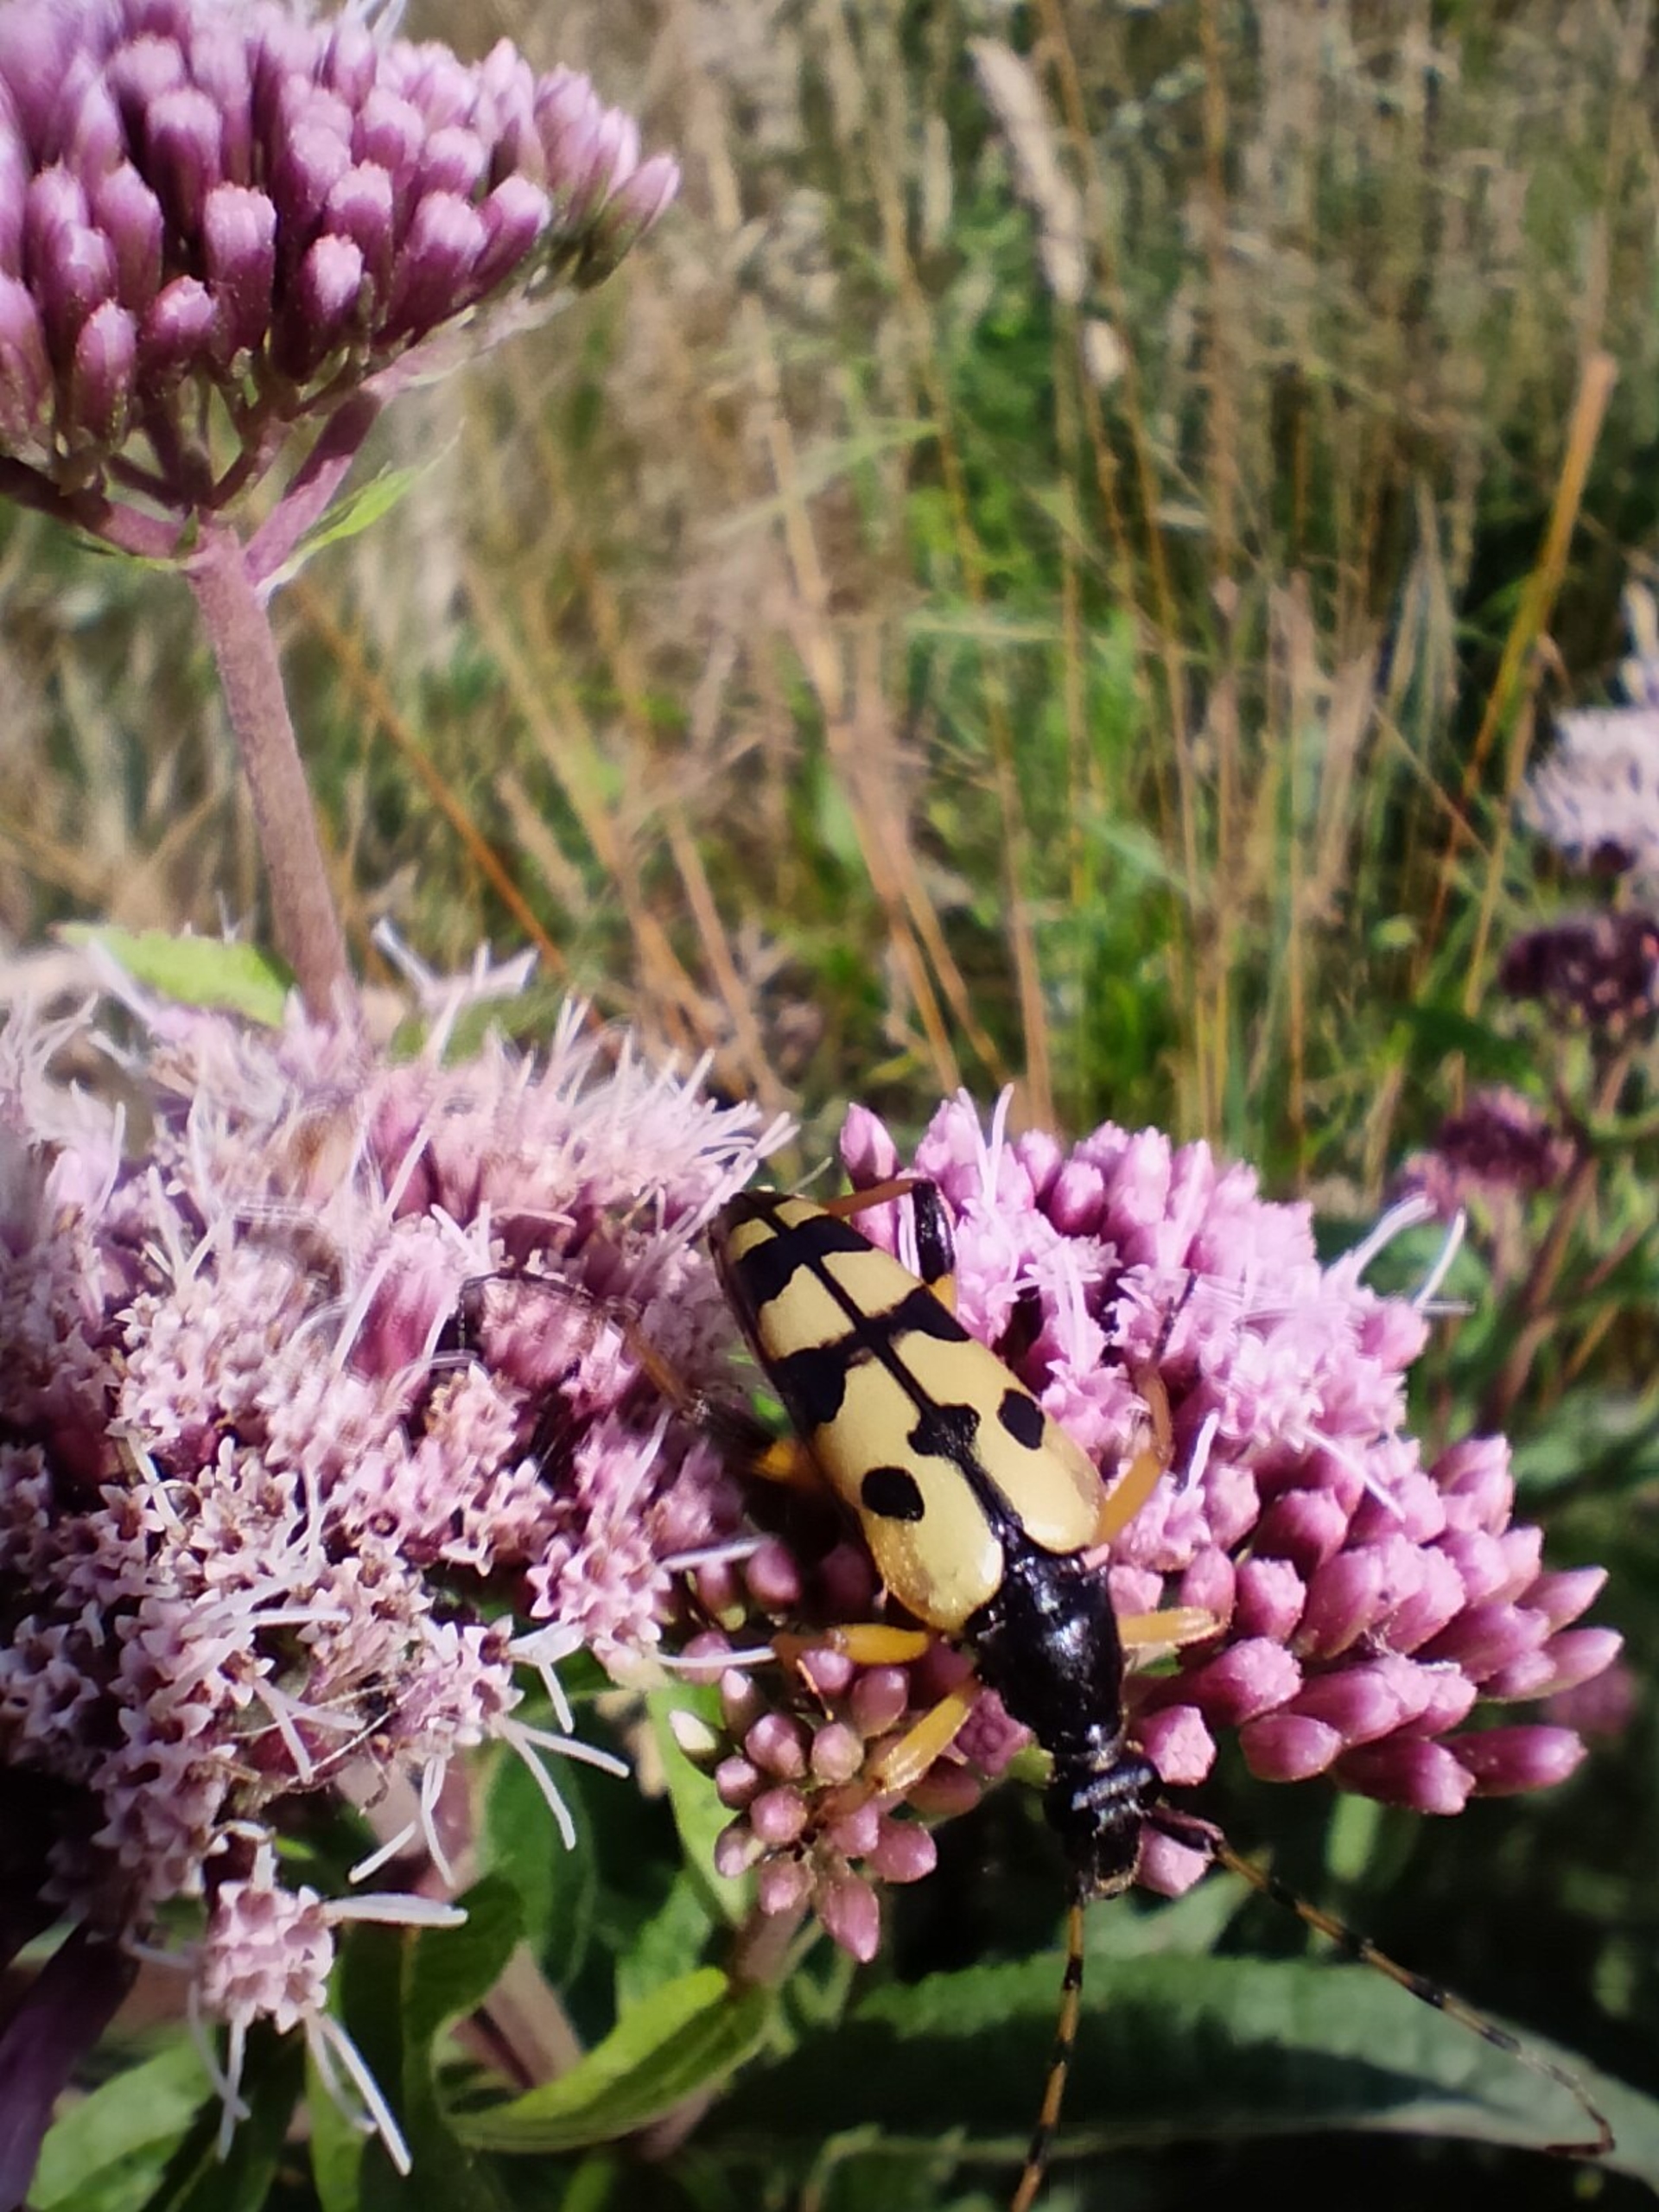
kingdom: Animalia
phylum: Arthropoda
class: Insecta
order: Coleoptera
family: Cerambycidae
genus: Rutpela
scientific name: Rutpela maculata
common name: Sydlig blomsterbuk
